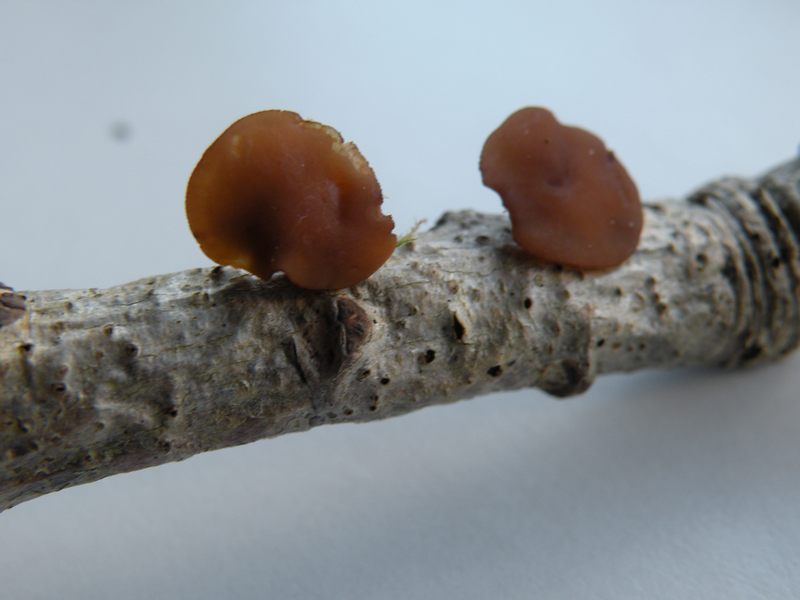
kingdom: Fungi
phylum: Ascomycota
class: Leotiomycetes
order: Helotiales
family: Rutstroemiaceae
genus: Rutstroemia
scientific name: Rutstroemia firma
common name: gren-brunskive
